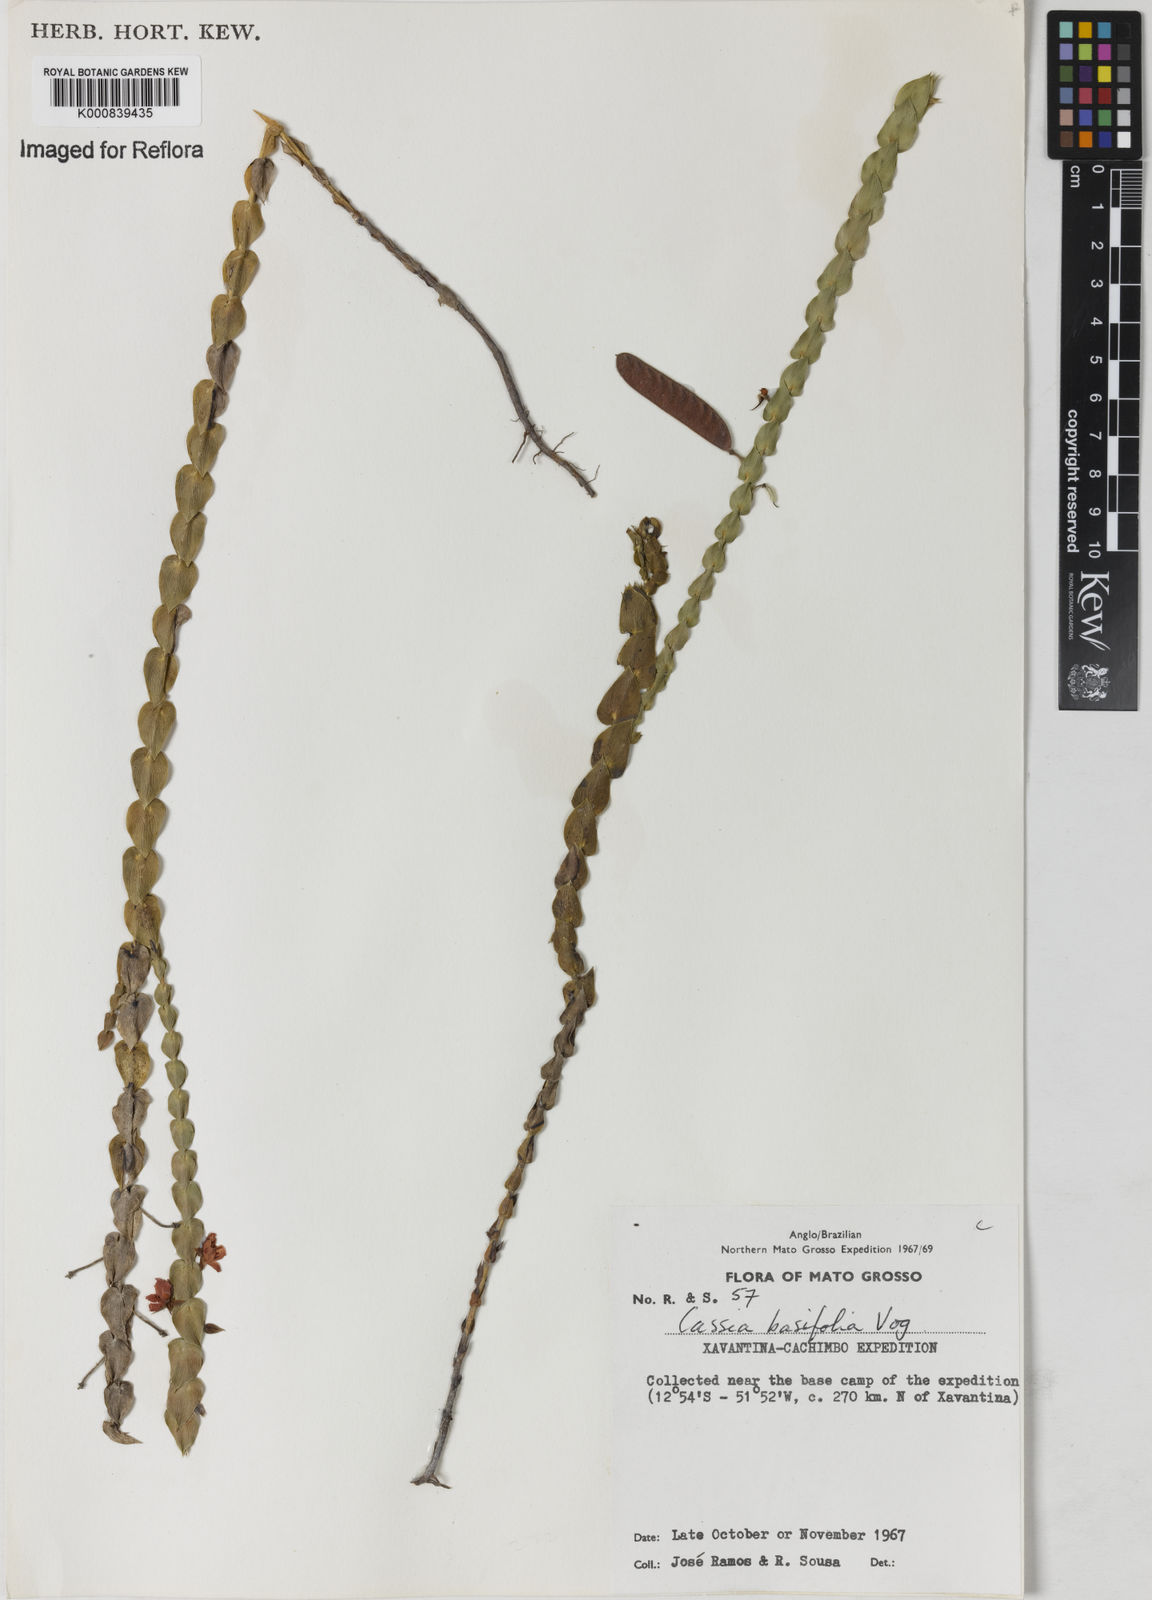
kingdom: Plantae
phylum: Tracheophyta
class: Magnoliopsida
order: Fabales
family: Fabaceae
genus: Chamaecrista
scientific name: Chamaecrista basifolia
